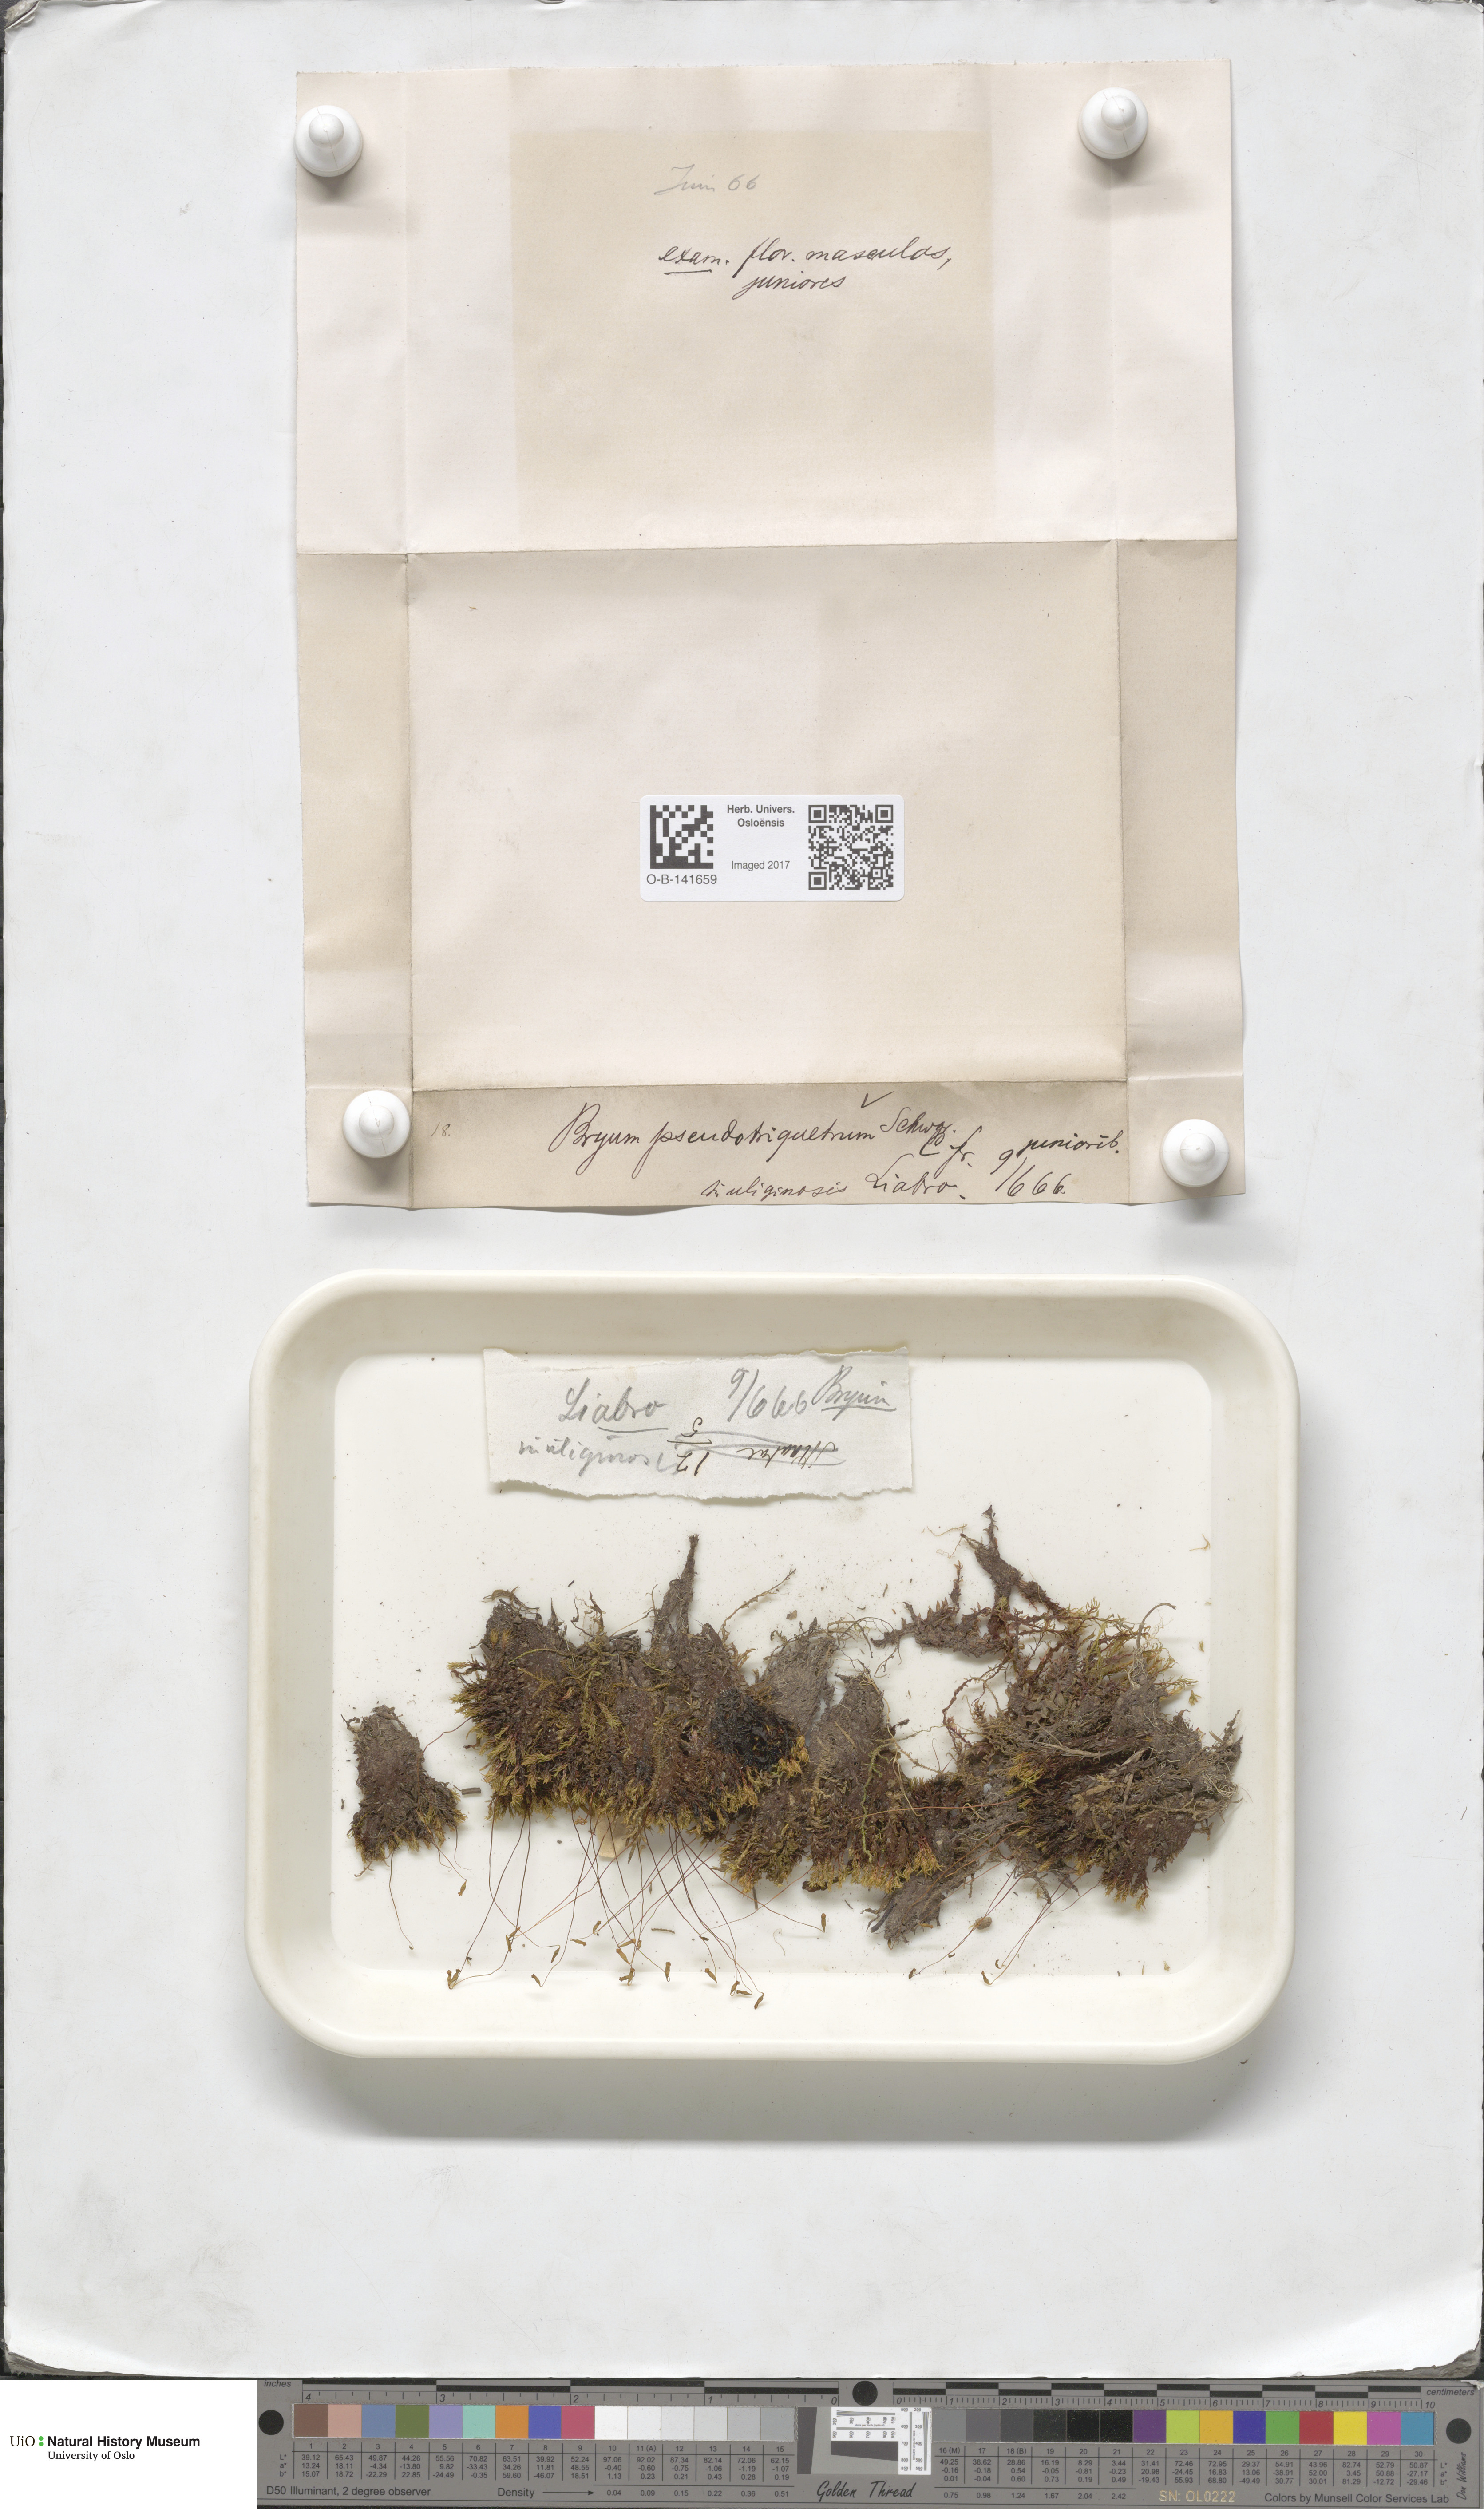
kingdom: Plantae
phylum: Bryophyta
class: Bryopsida
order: Bryales
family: Bryaceae
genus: Ptychostomum
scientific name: Ptychostomum pseudotriquetrum
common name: Long-leaved thread moss
